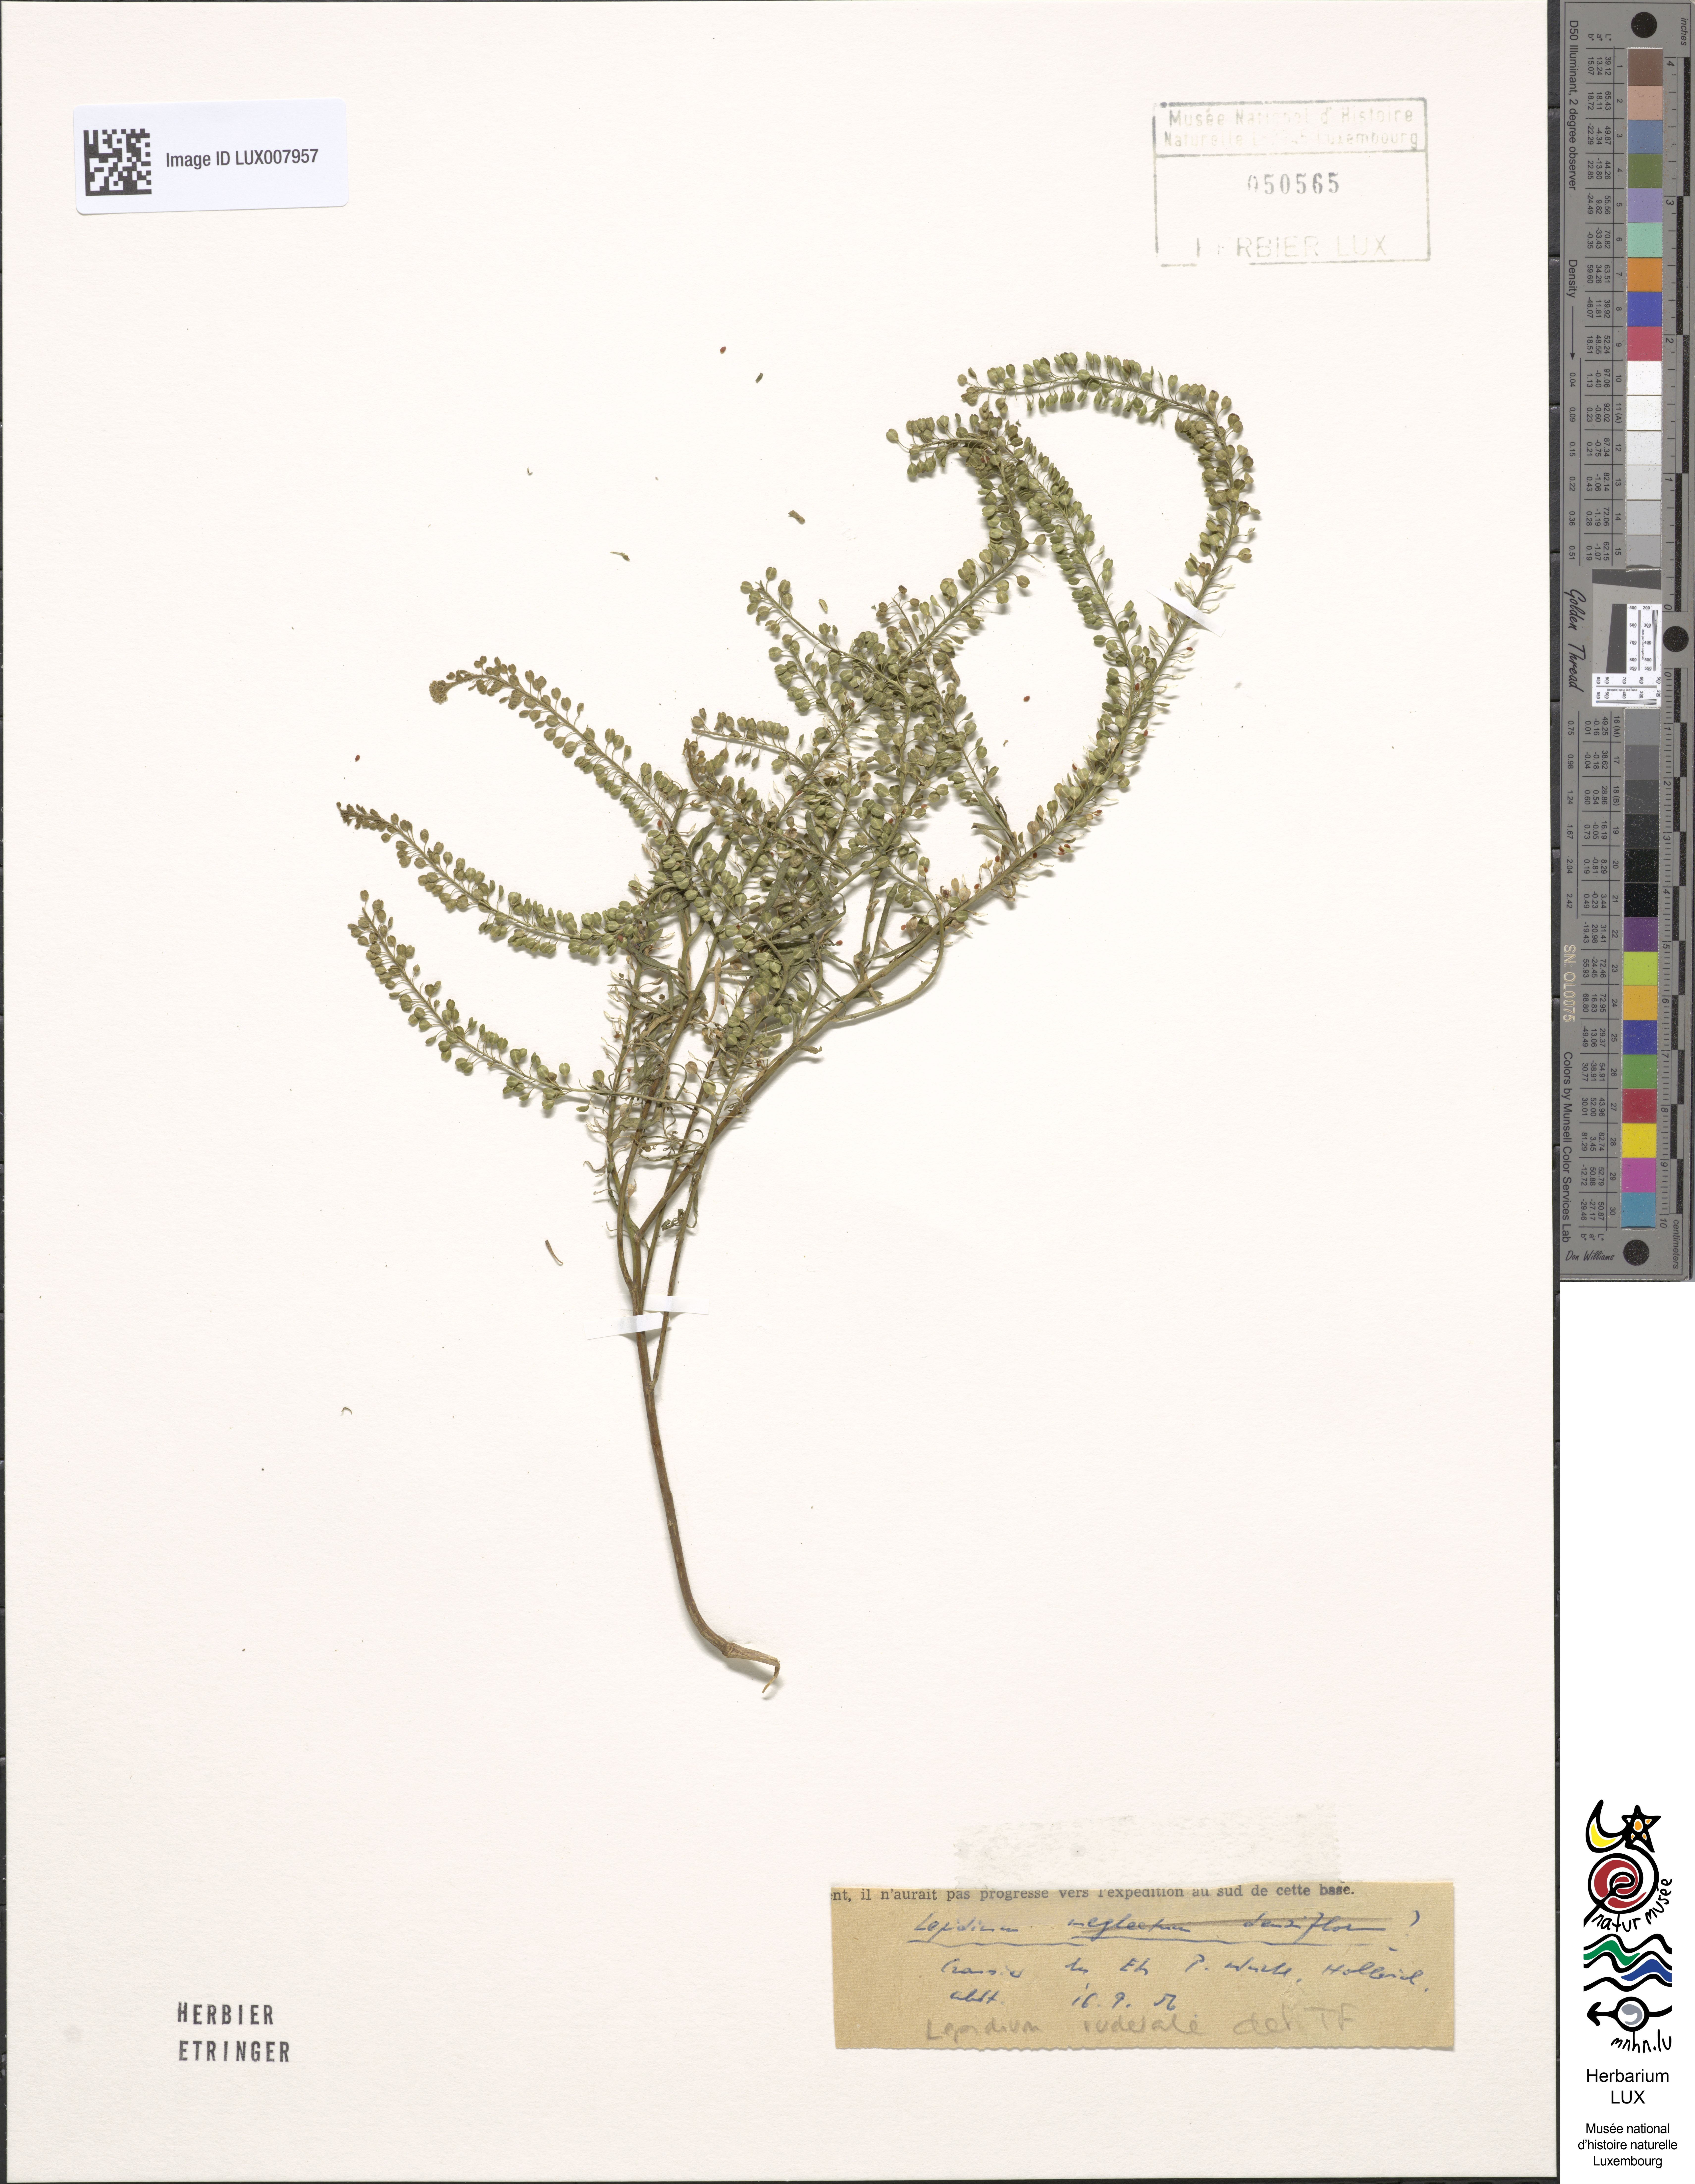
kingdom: Plantae
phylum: Tracheophyta
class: Magnoliopsida
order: Brassicales
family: Brassicaceae
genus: Lepidium
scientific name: Lepidium ruderale
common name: Narrow-leaved pepperwort
